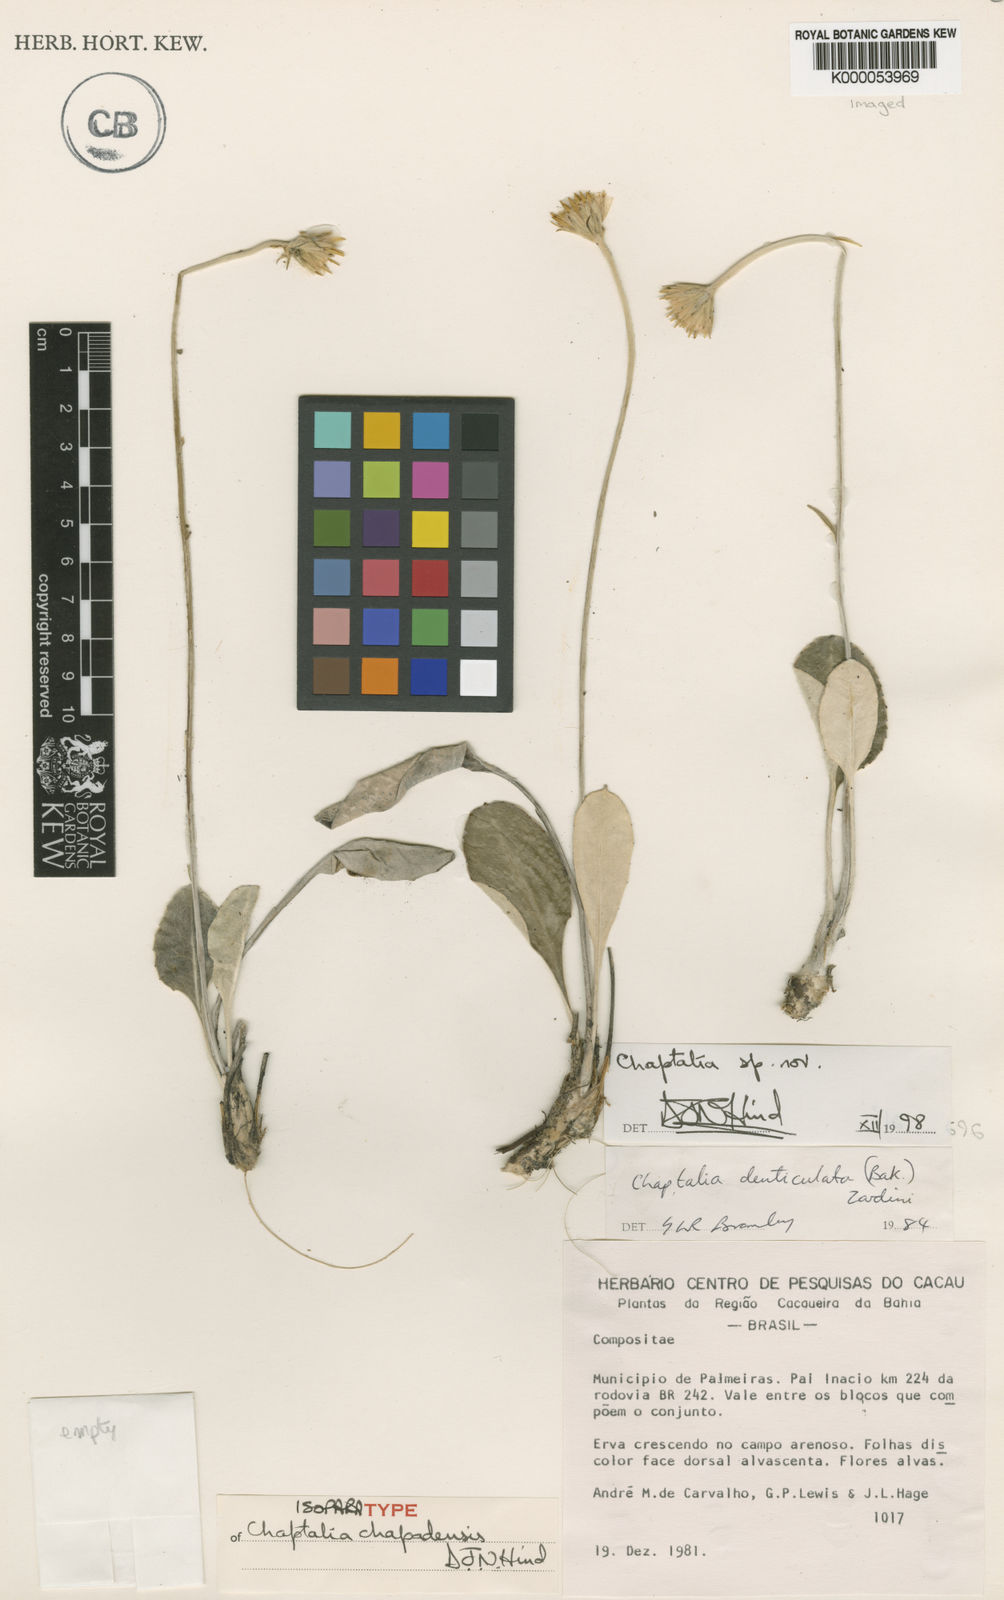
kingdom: Plantae
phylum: Tracheophyta
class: Magnoliopsida
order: Asterales
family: Asteraceae
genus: Chaptalia
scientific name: Chaptalia chapadensis
